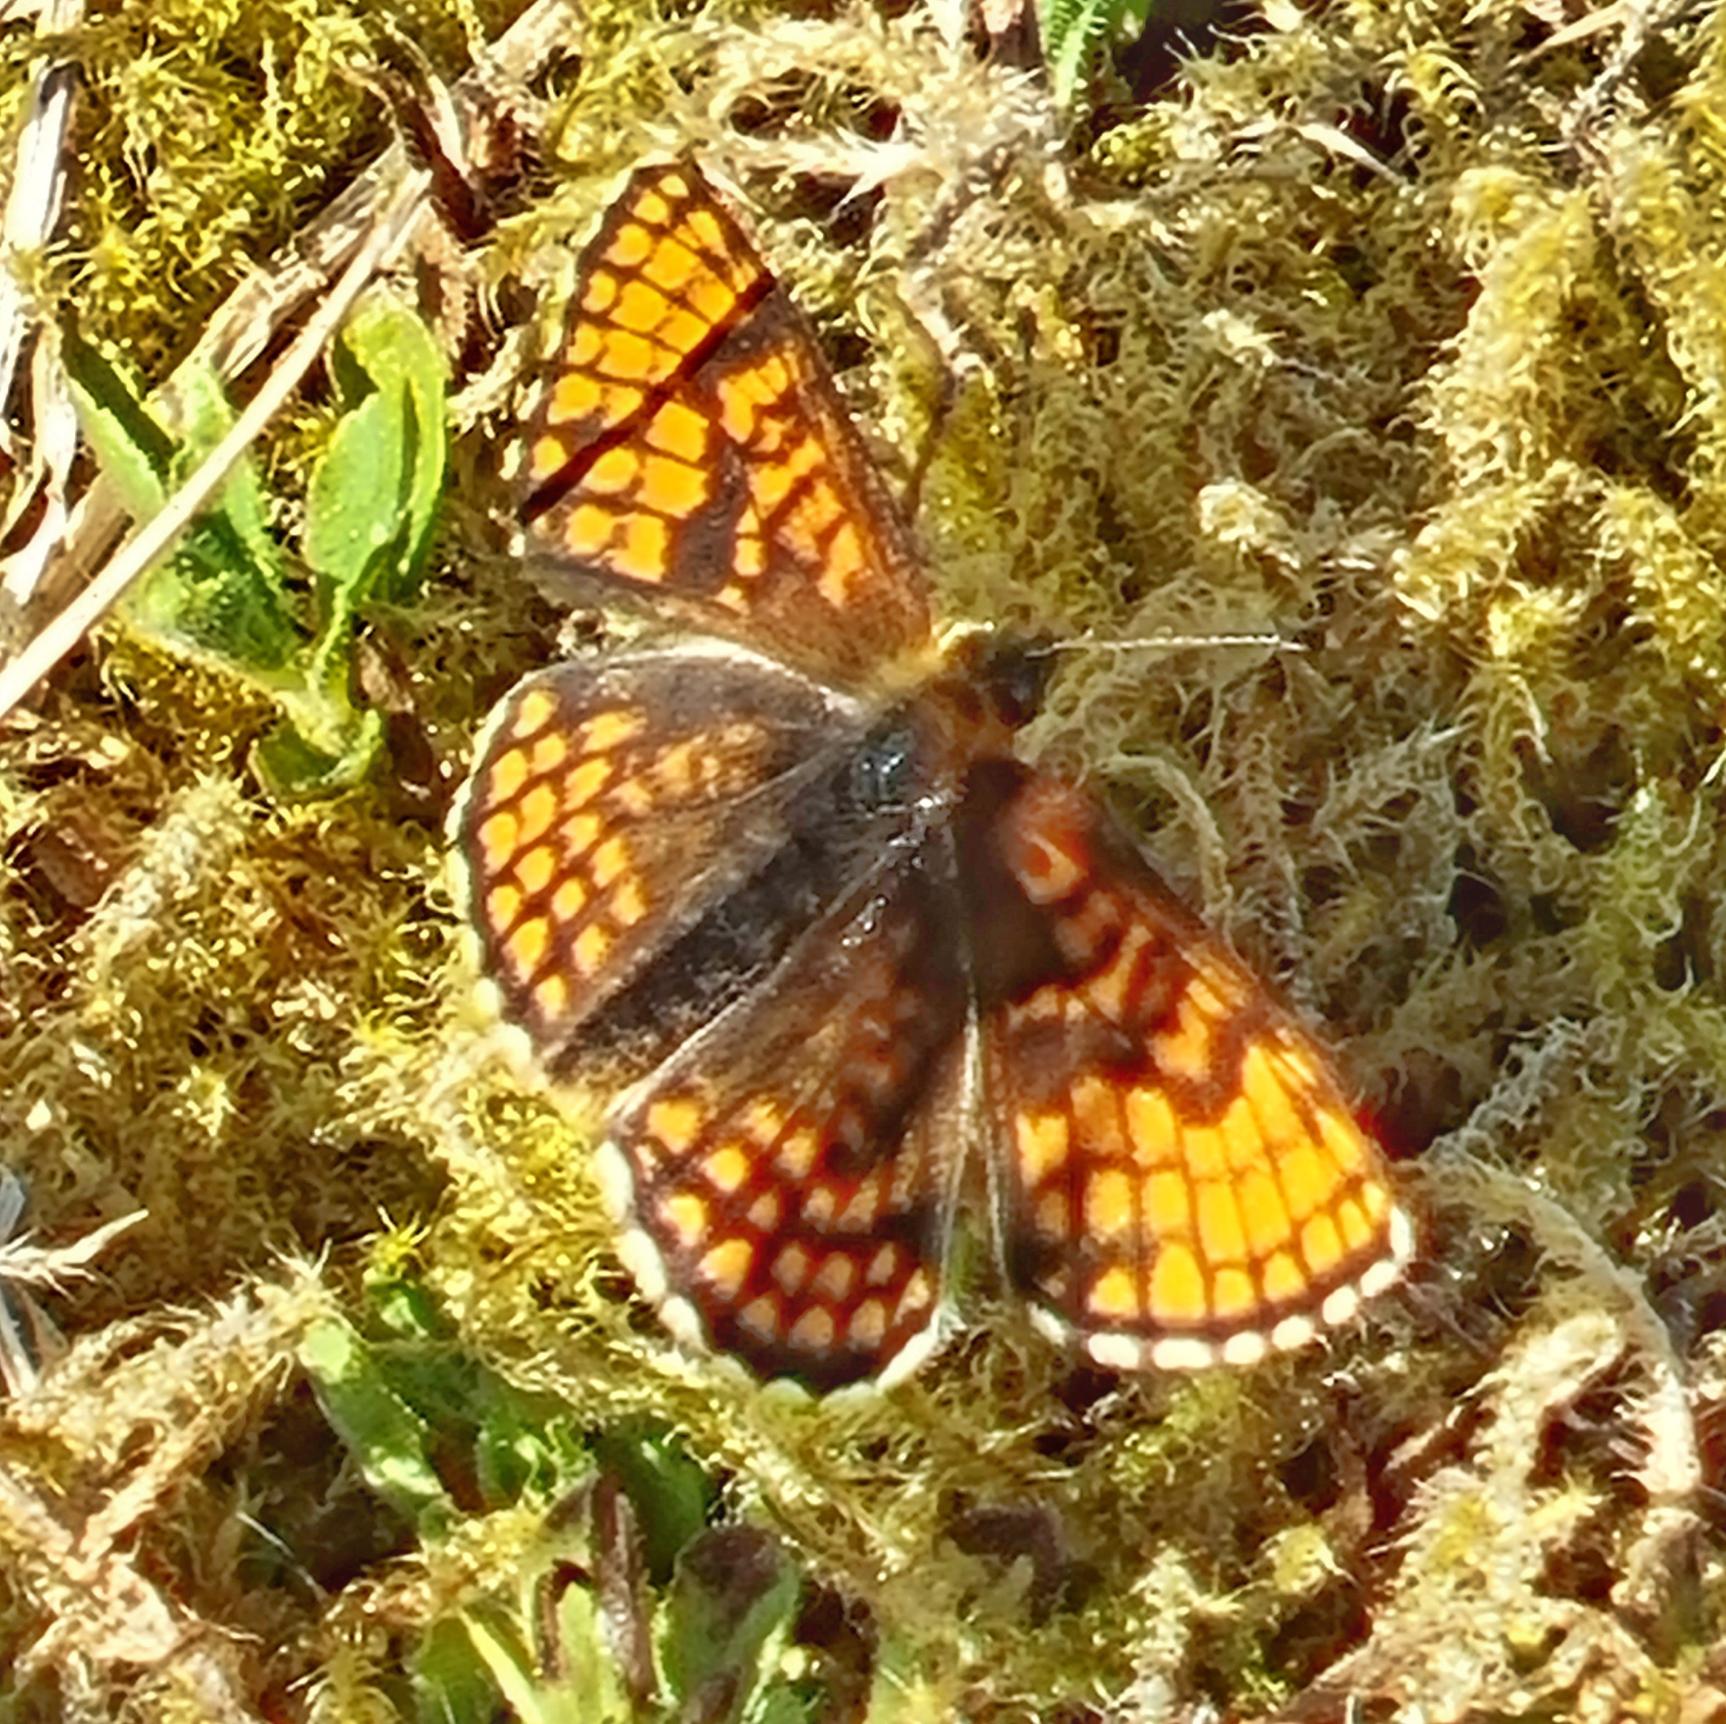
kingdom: Animalia
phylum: Arthropoda
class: Insecta
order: Lepidoptera
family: Nymphalidae
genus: Mellicta
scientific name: Mellicta athalia
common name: Brun pletvinge
